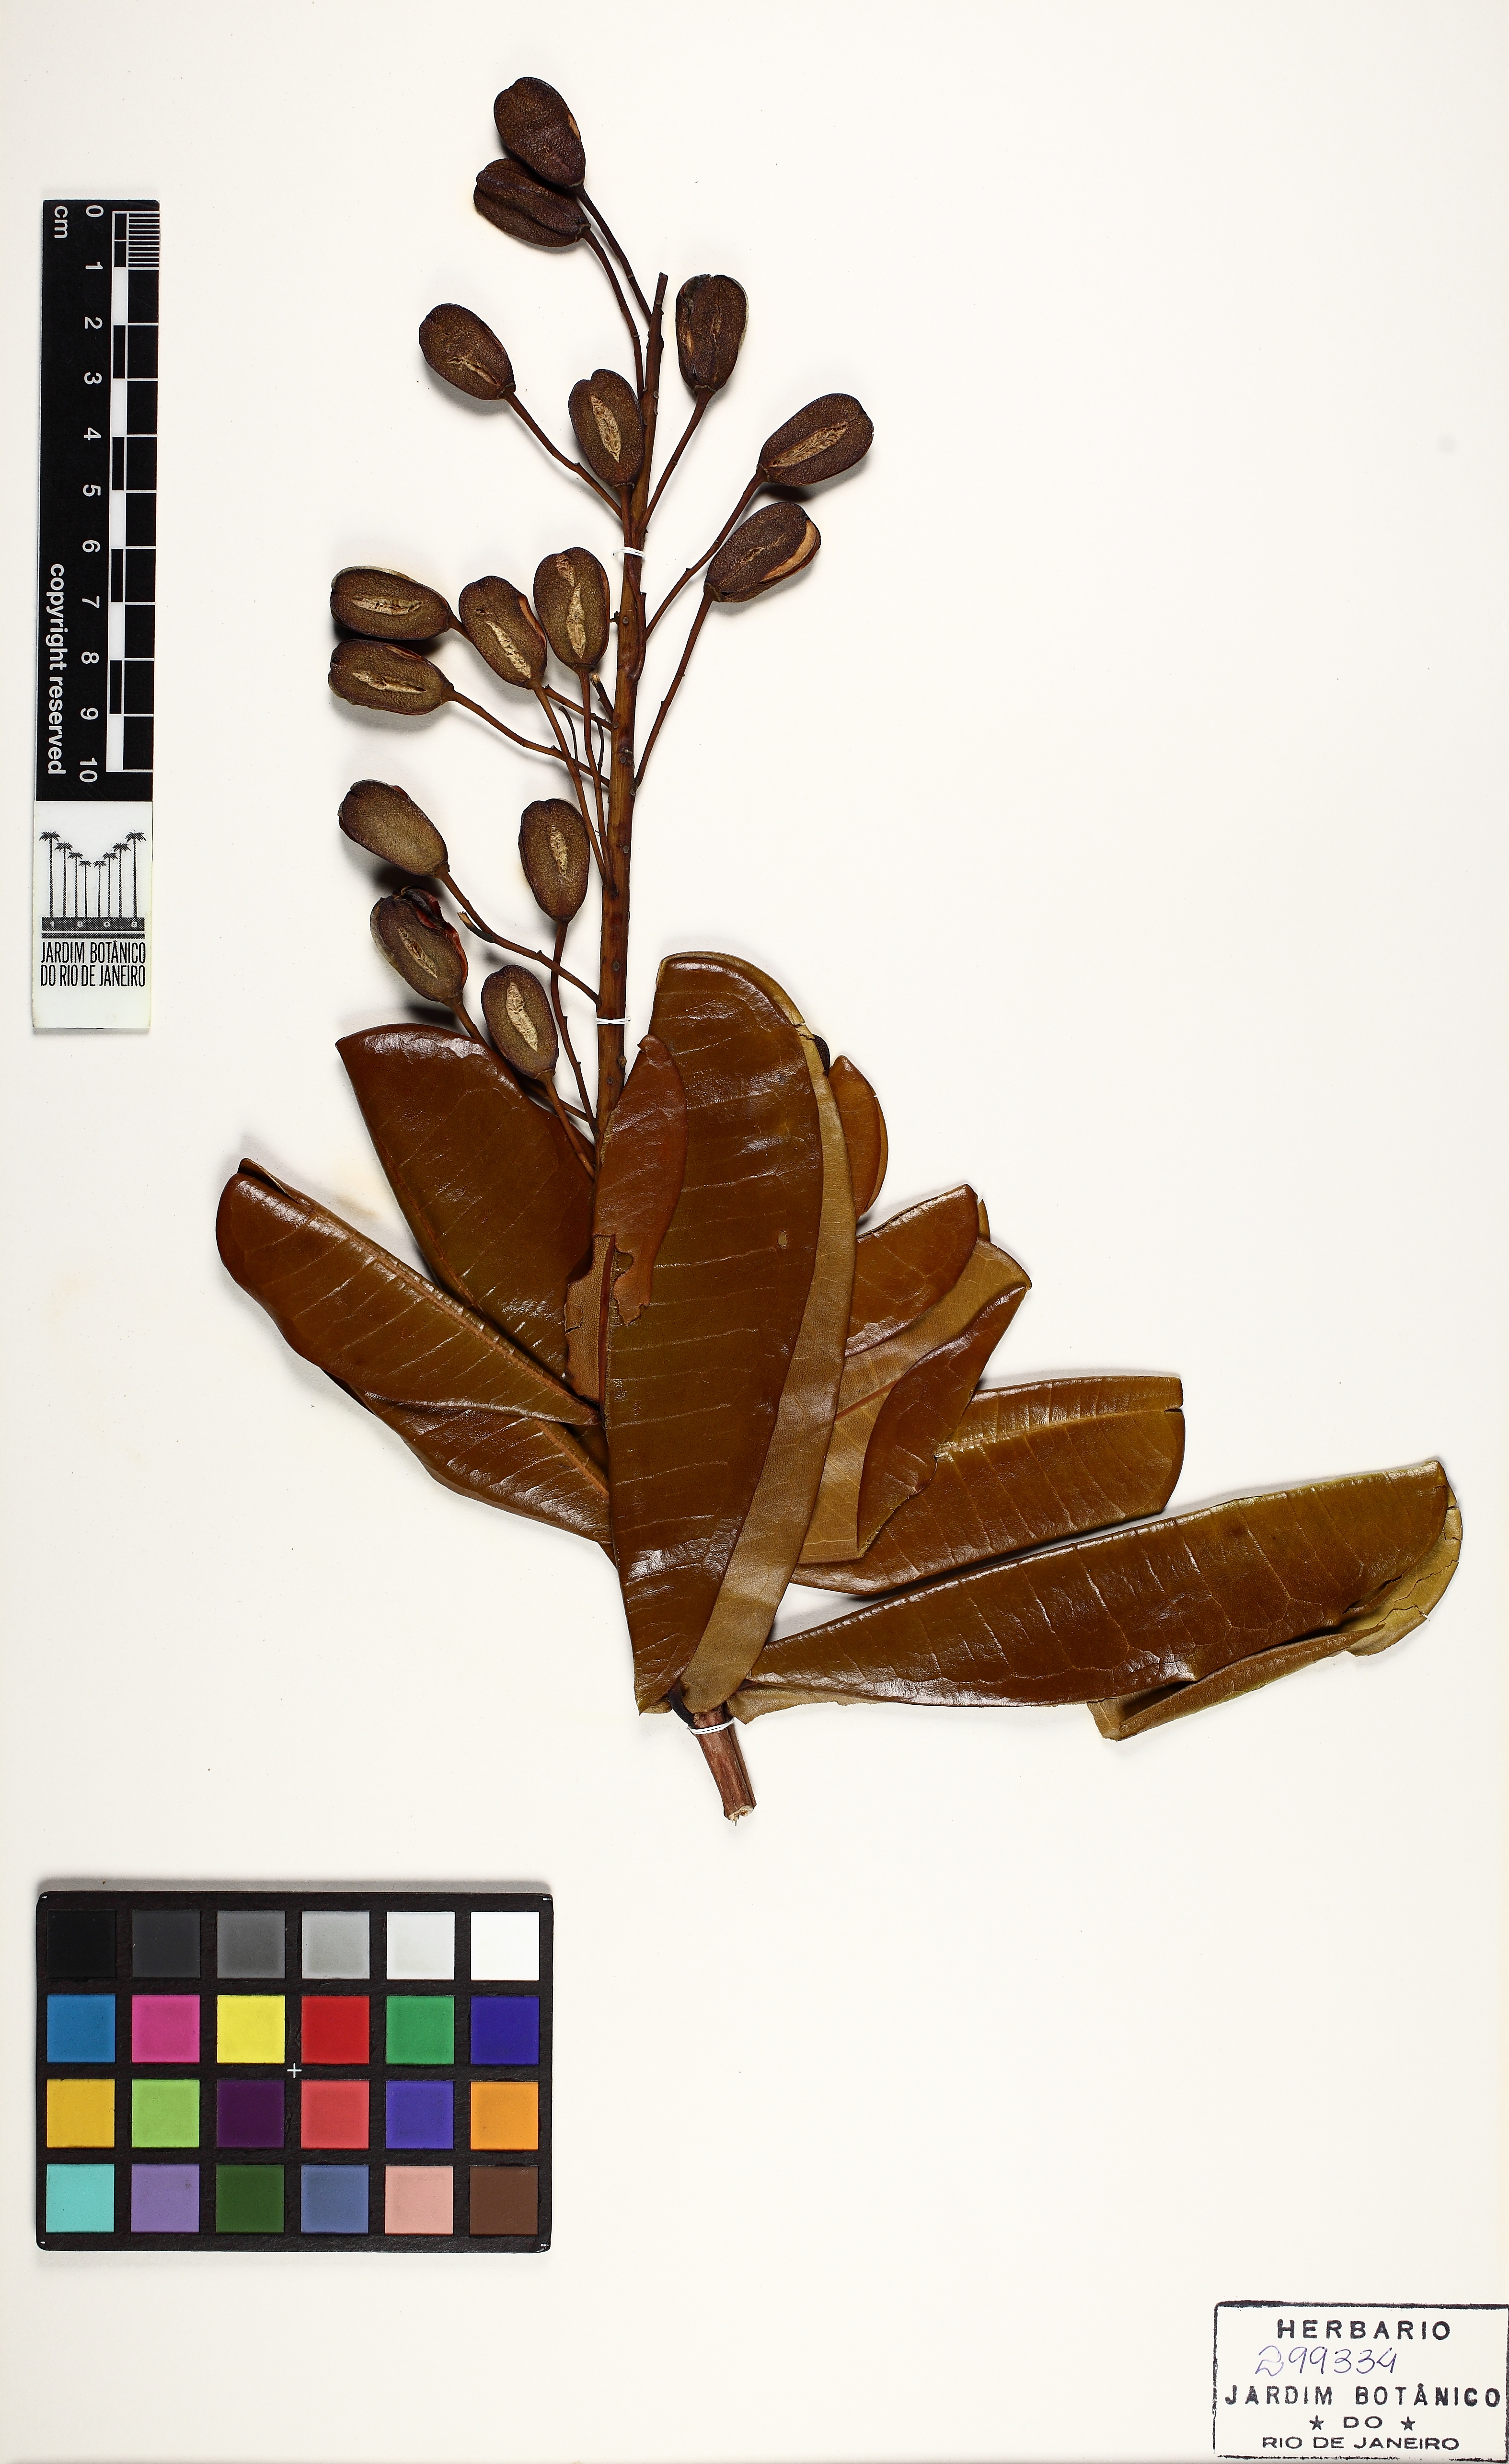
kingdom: Plantae
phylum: Tracheophyta
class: Magnoliopsida
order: Myrtales
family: Vochysiaceae
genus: Vochysia
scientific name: Vochysia lucida
